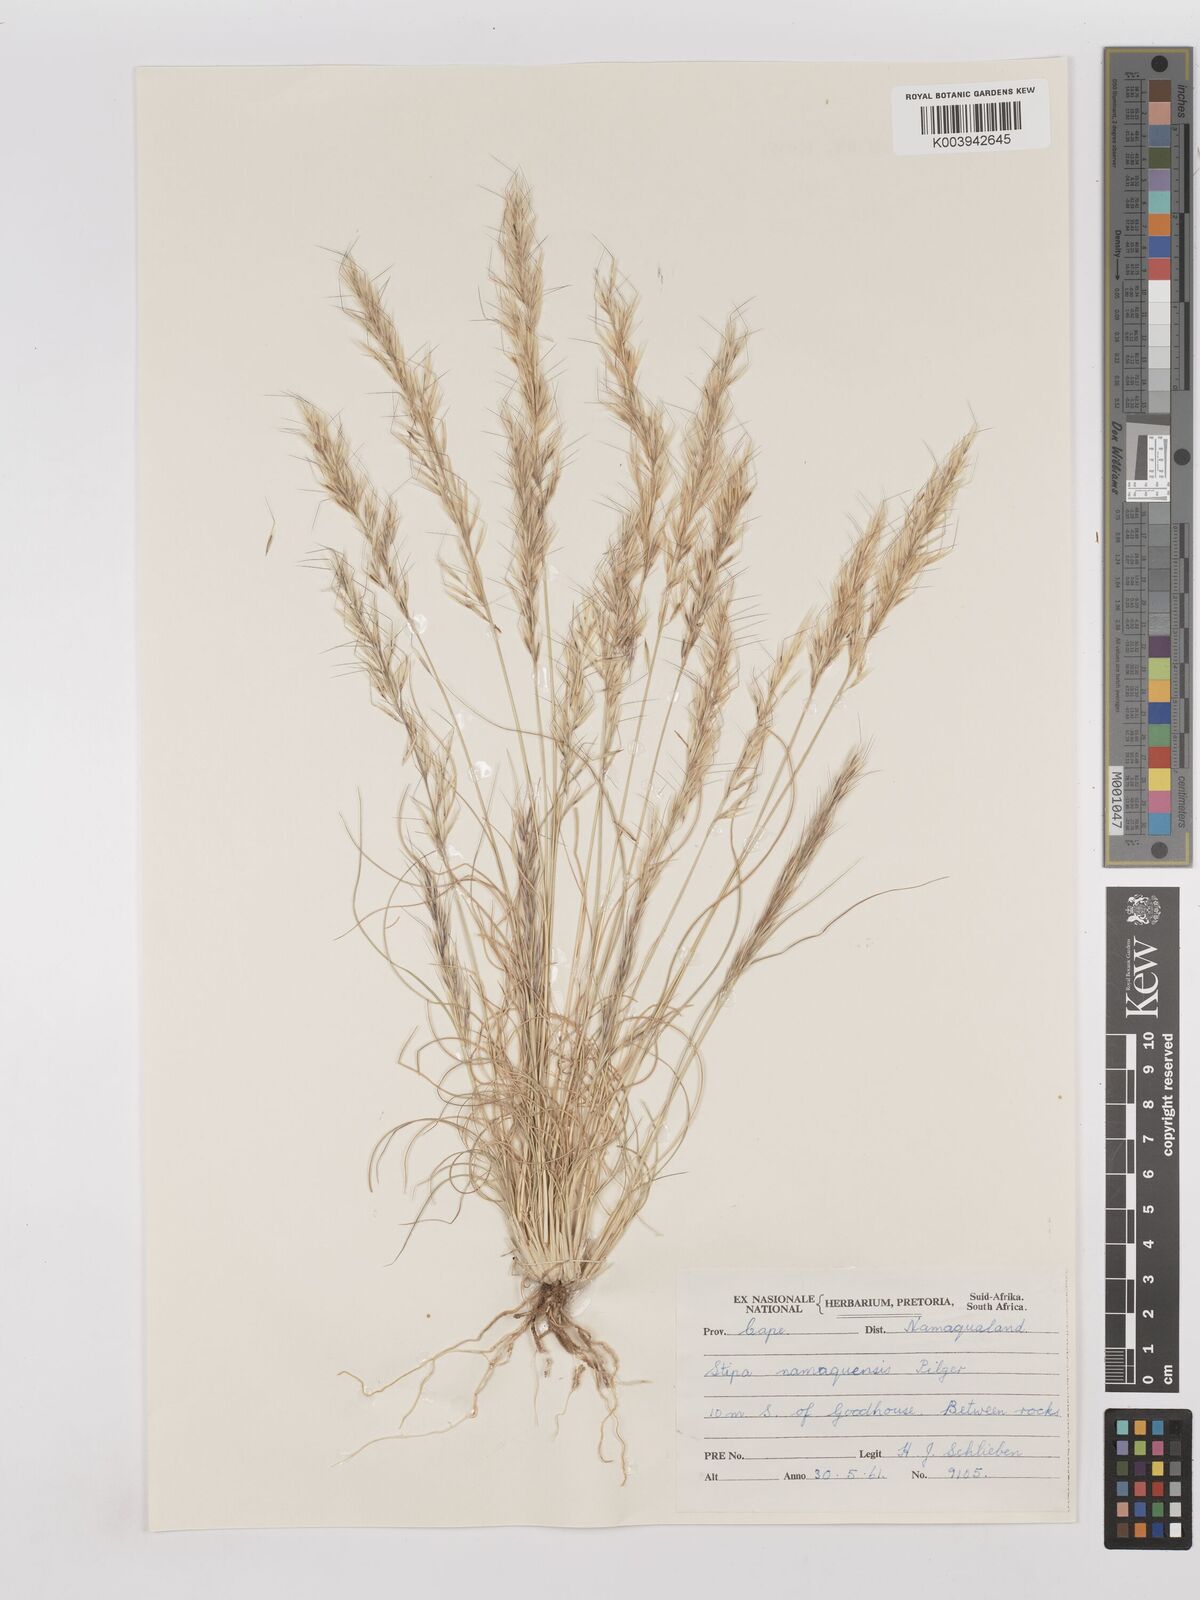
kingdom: Plantae
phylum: Tracheophyta
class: Liliopsida
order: Poales
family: Poaceae
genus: Stipagrostis
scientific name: Stipagrostis anomala
